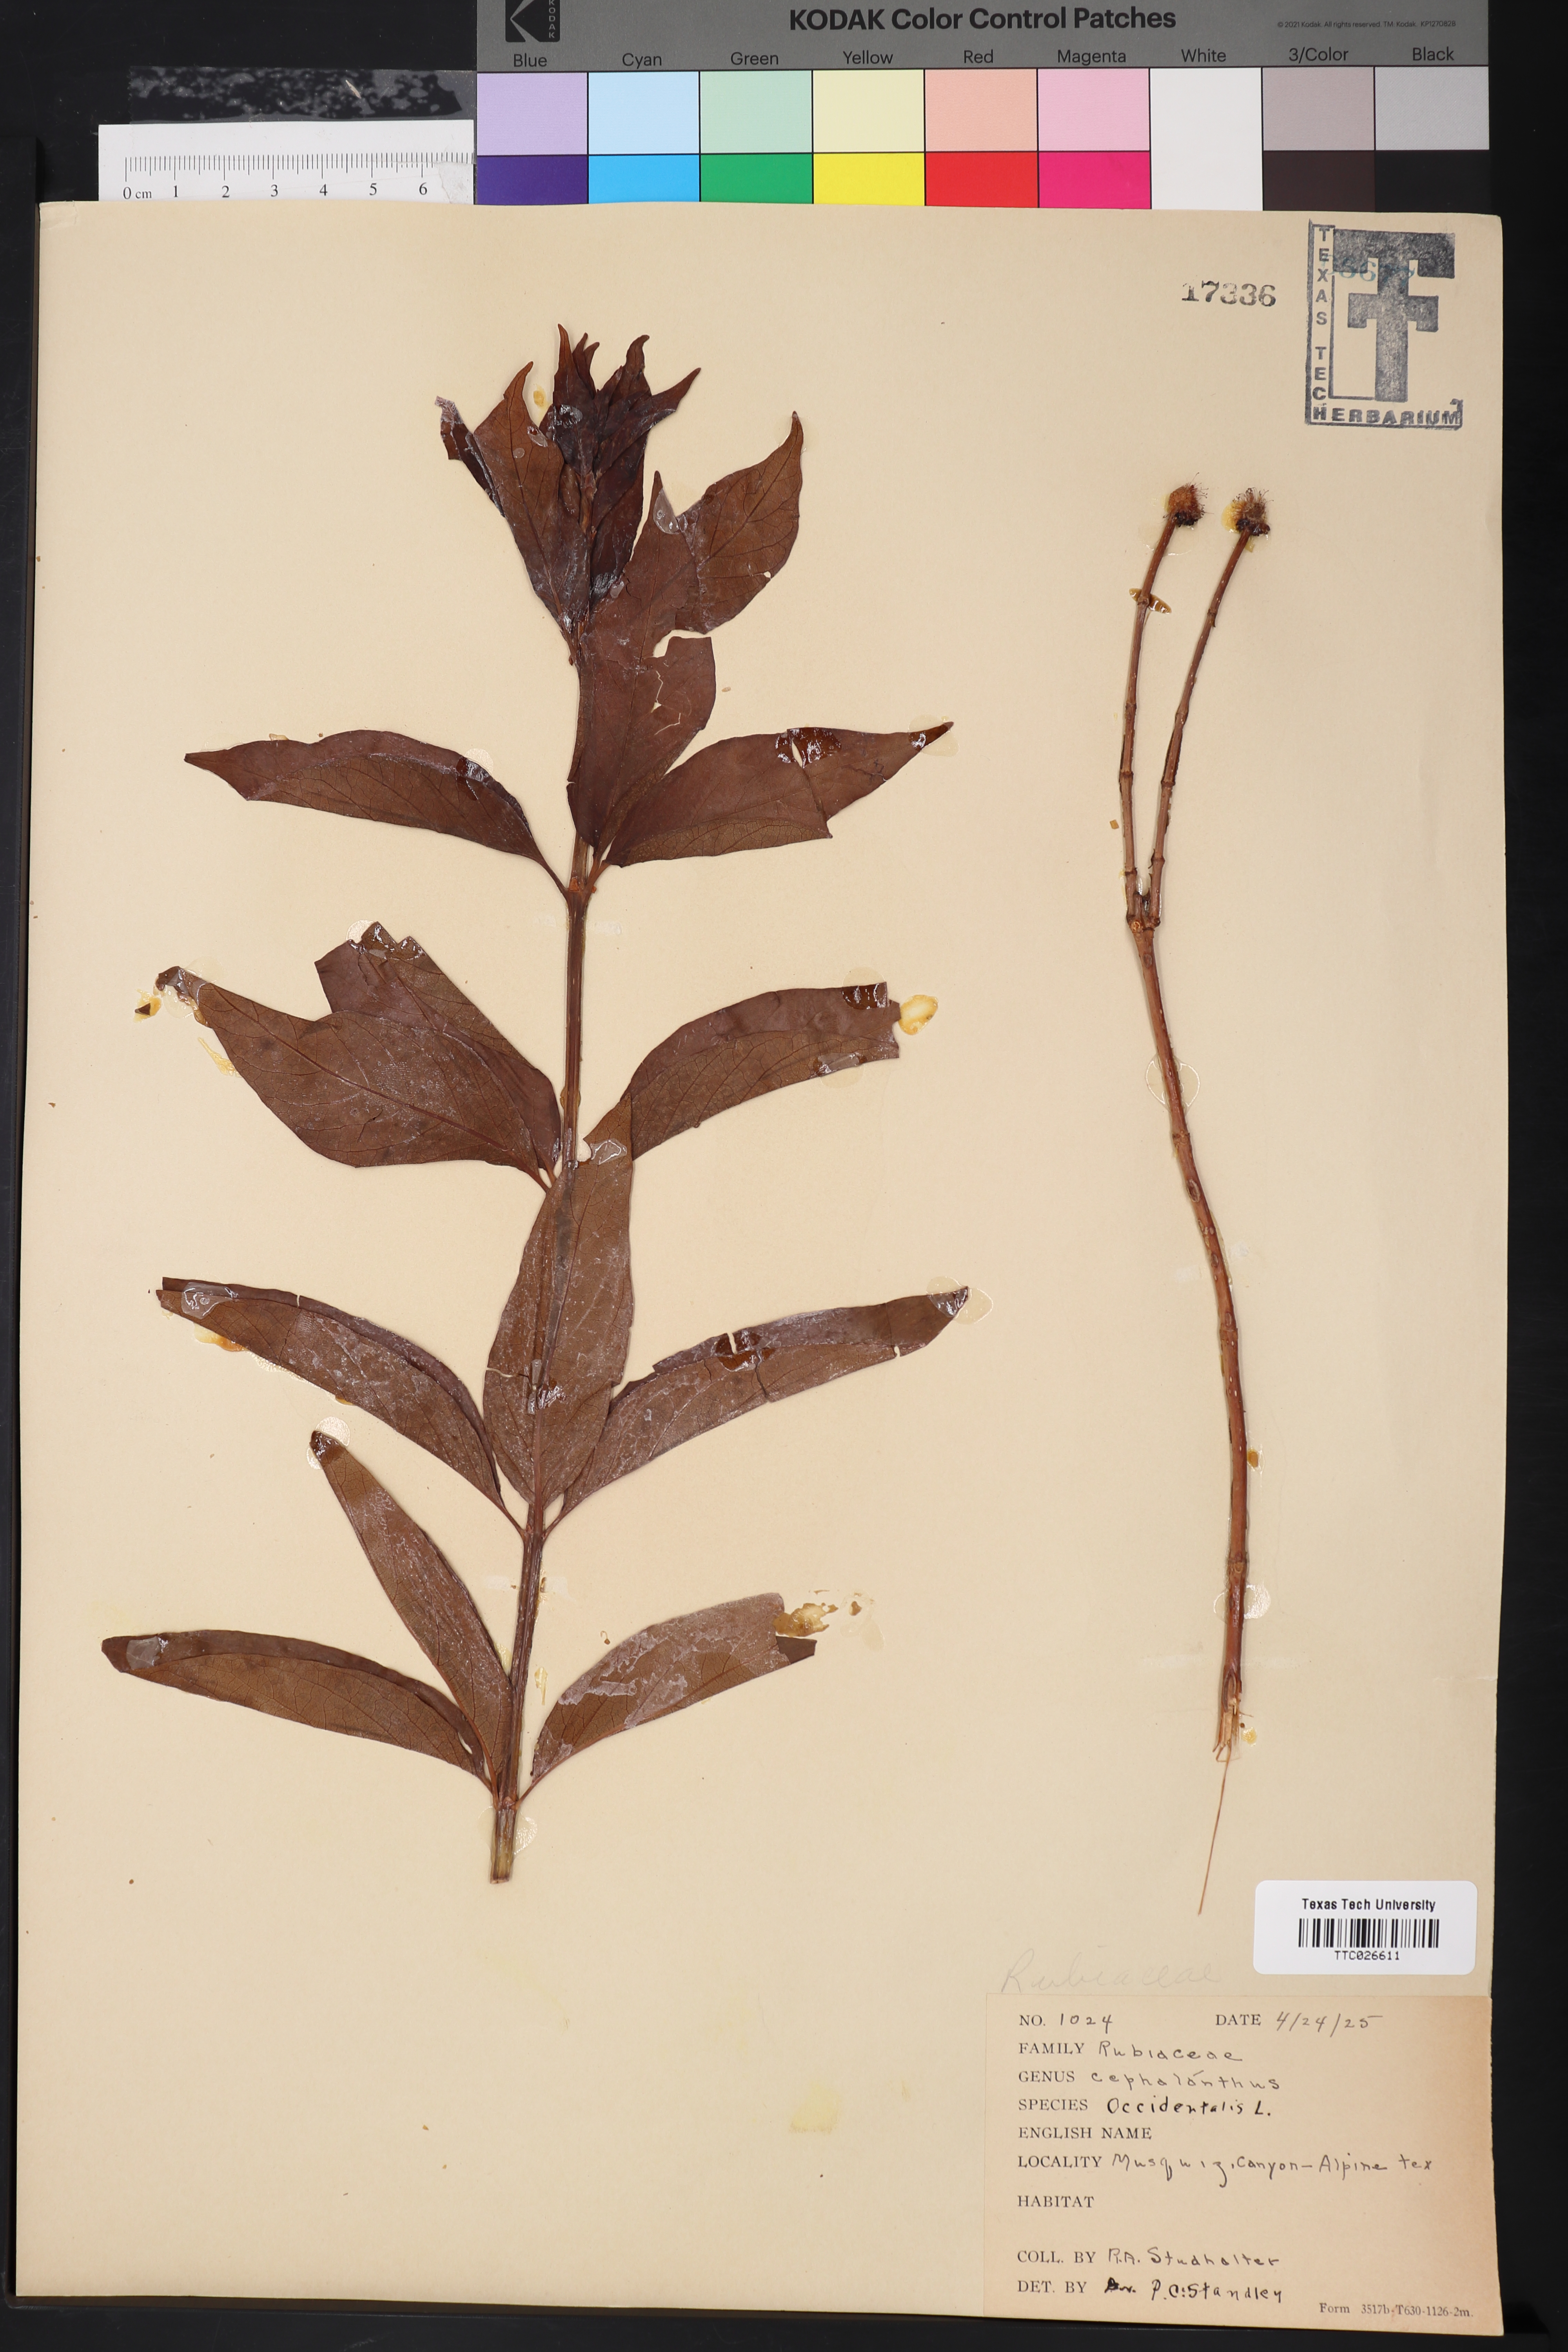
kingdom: Plantae
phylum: Tracheophyta
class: Magnoliopsida
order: Gentianales
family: Rubiaceae
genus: Cephalanthus
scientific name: Cephalanthus occidentalis
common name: Button-willow
